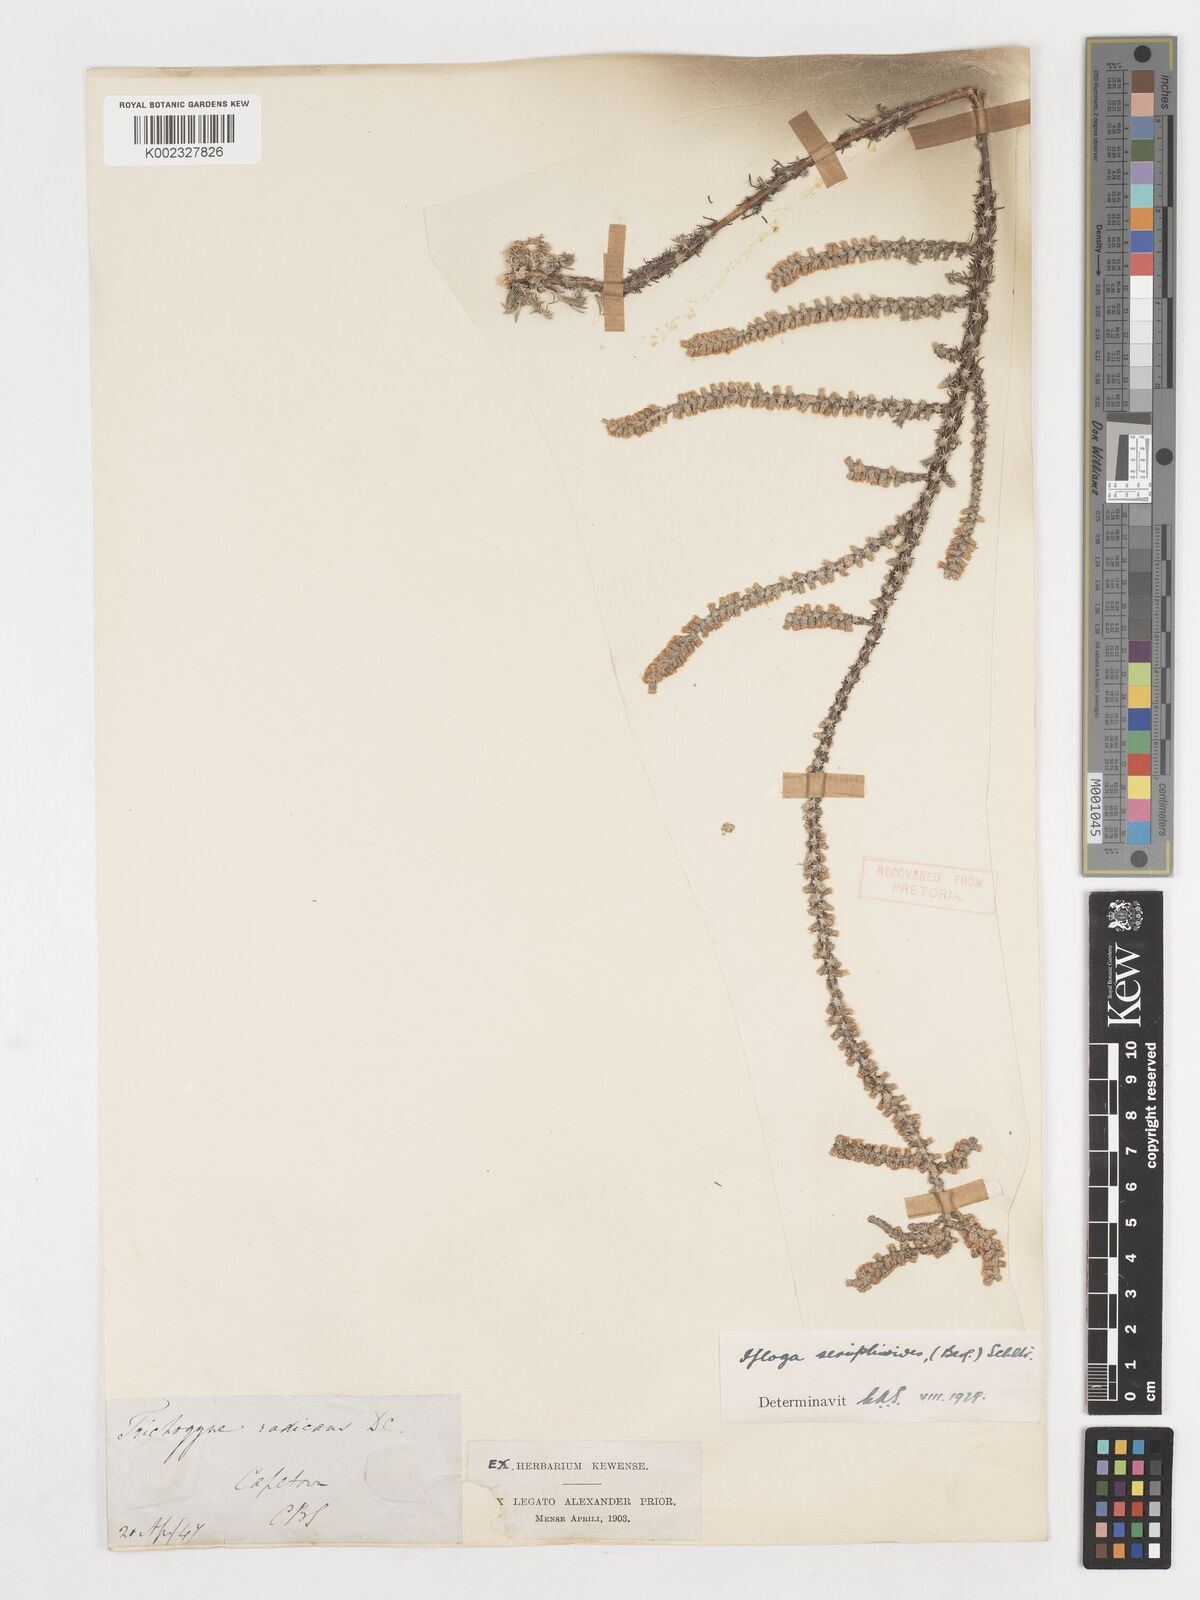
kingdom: Plantae
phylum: Tracheophyta
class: Magnoliopsida
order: Asterales
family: Asteraceae
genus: Ifloga
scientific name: Ifloga ambigua
